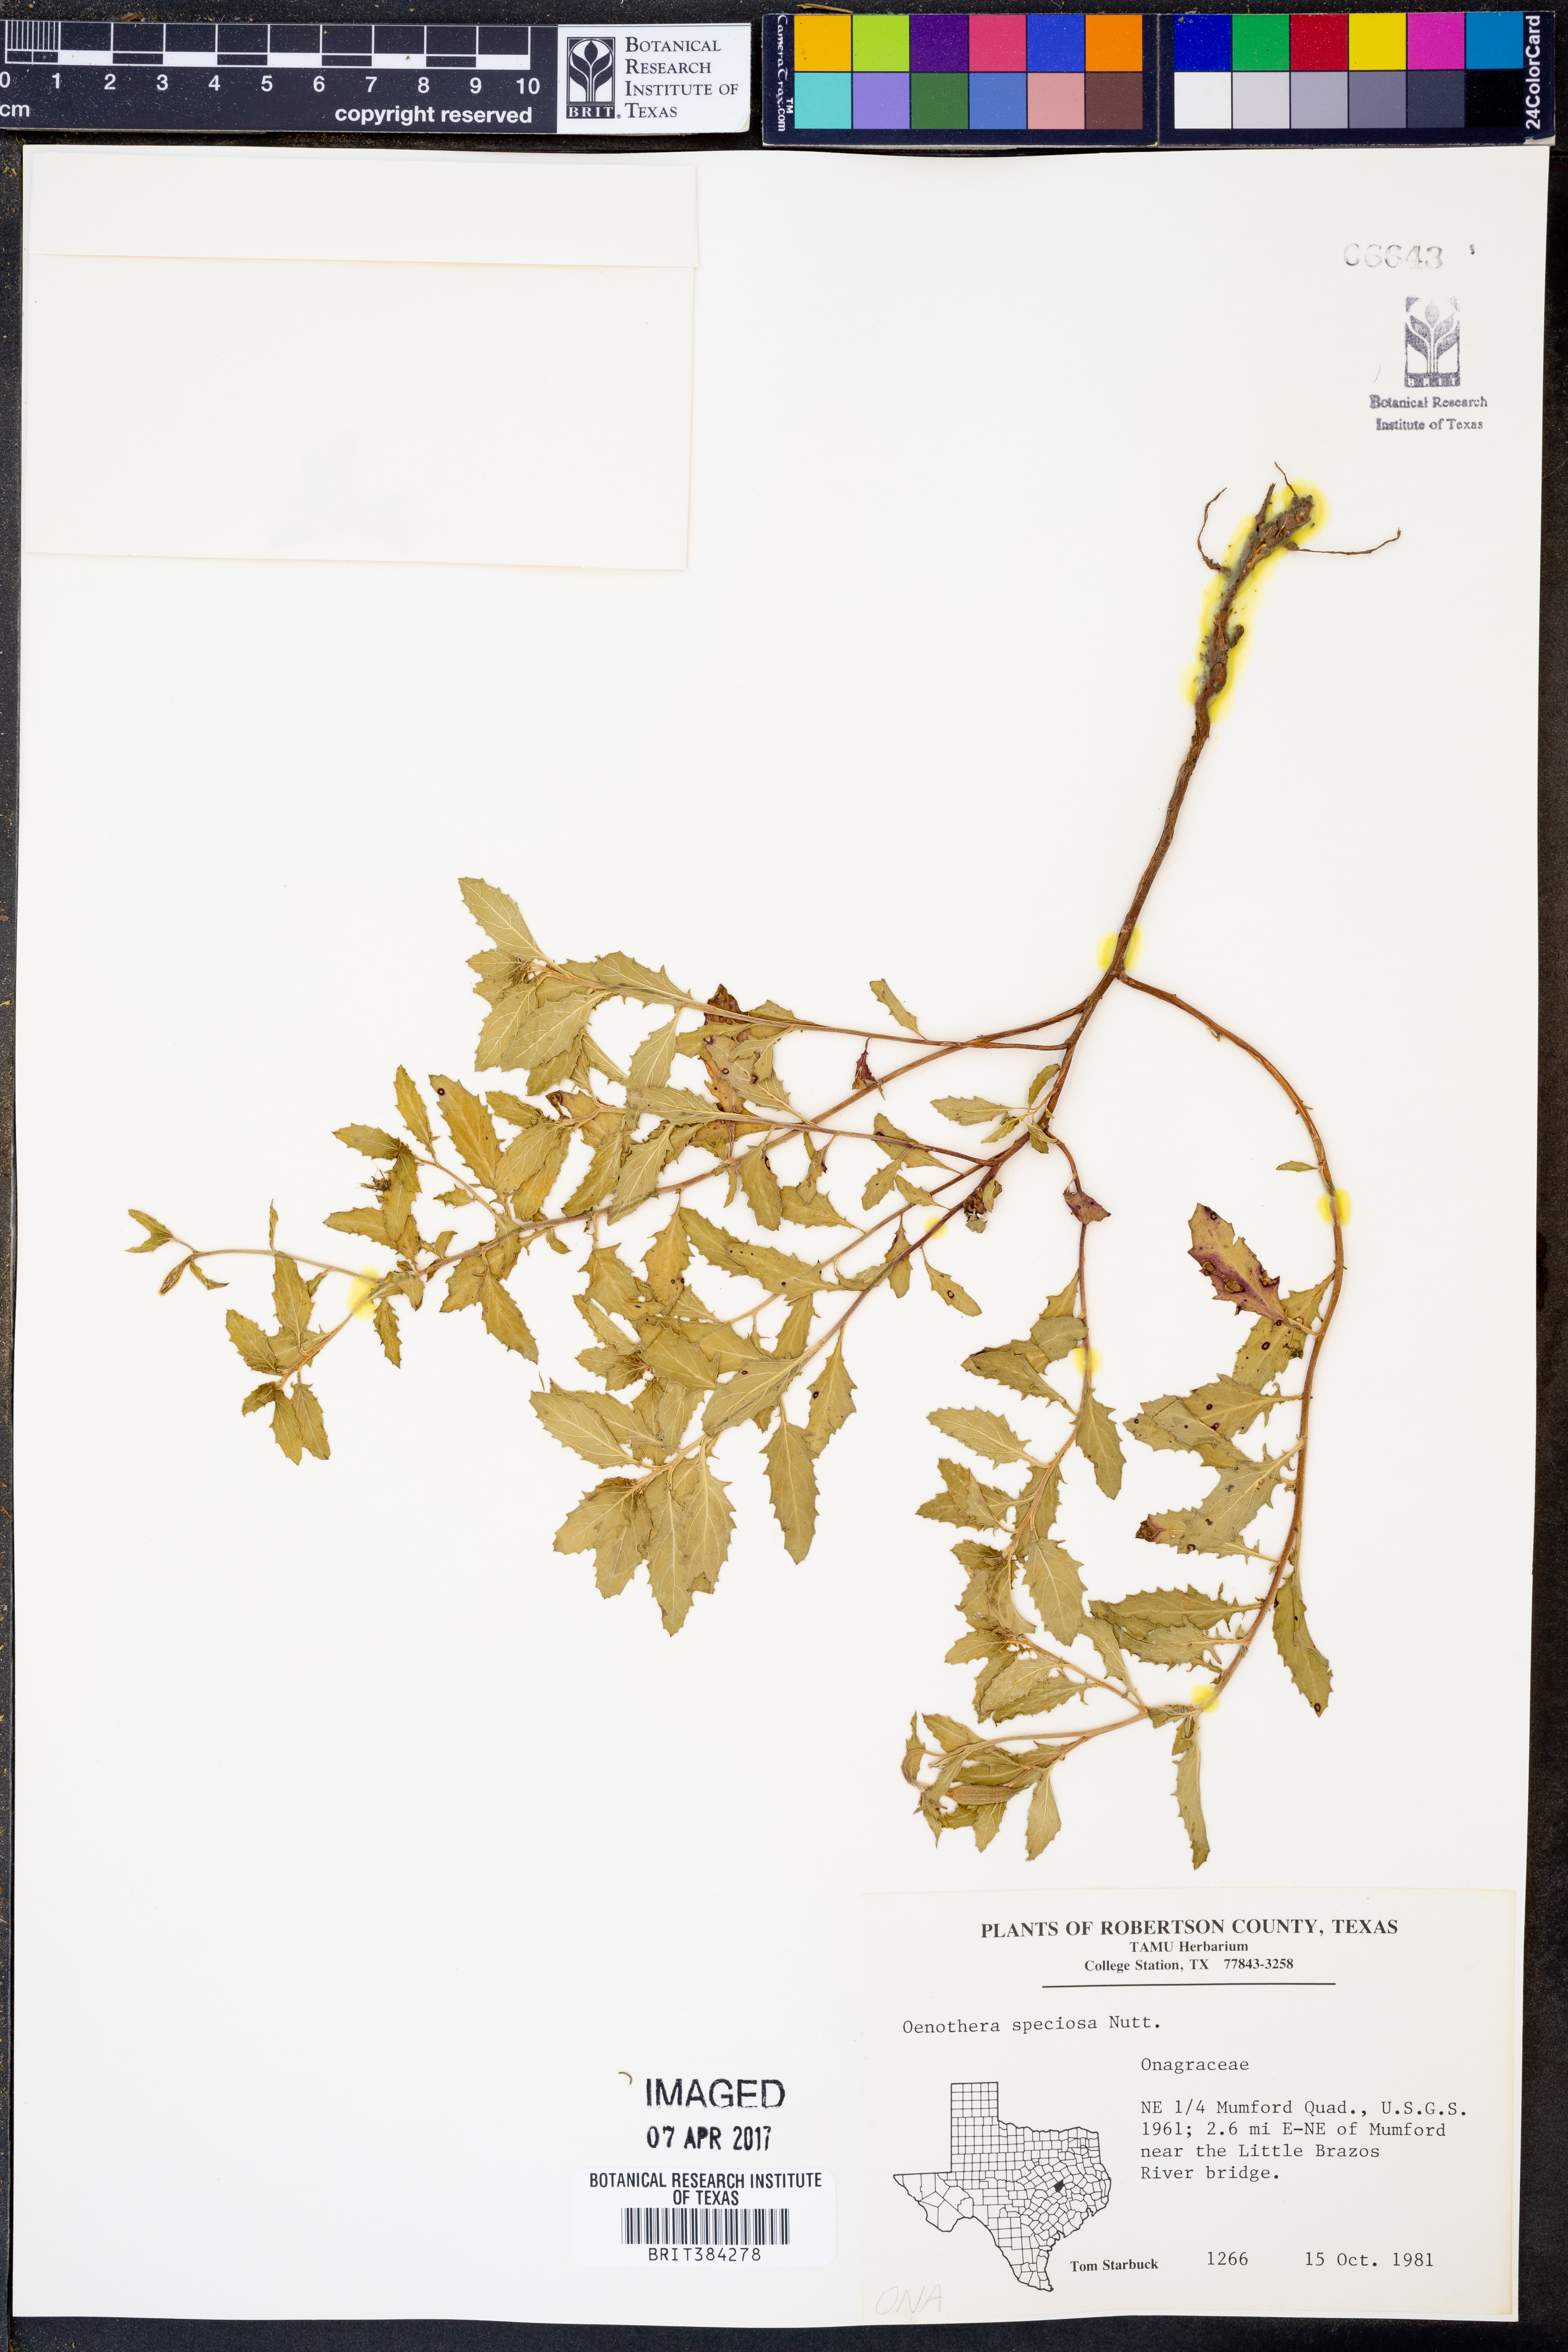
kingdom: Plantae
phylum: Tracheophyta
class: Magnoliopsida
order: Myrtales
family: Onagraceae
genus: Oenothera
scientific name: Oenothera speciosa
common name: White evening-primrose
